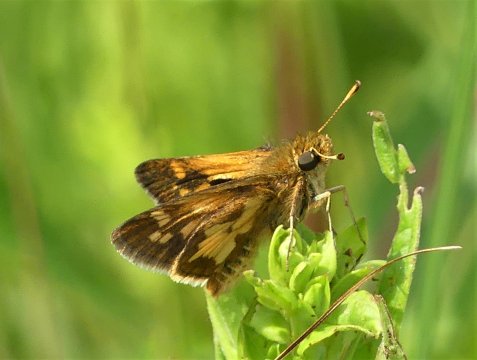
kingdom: Animalia
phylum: Arthropoda
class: Insecta
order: Lepidoptera
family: Hesperiidae
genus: Polites
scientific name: Polites coras
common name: Peck's Skipper
